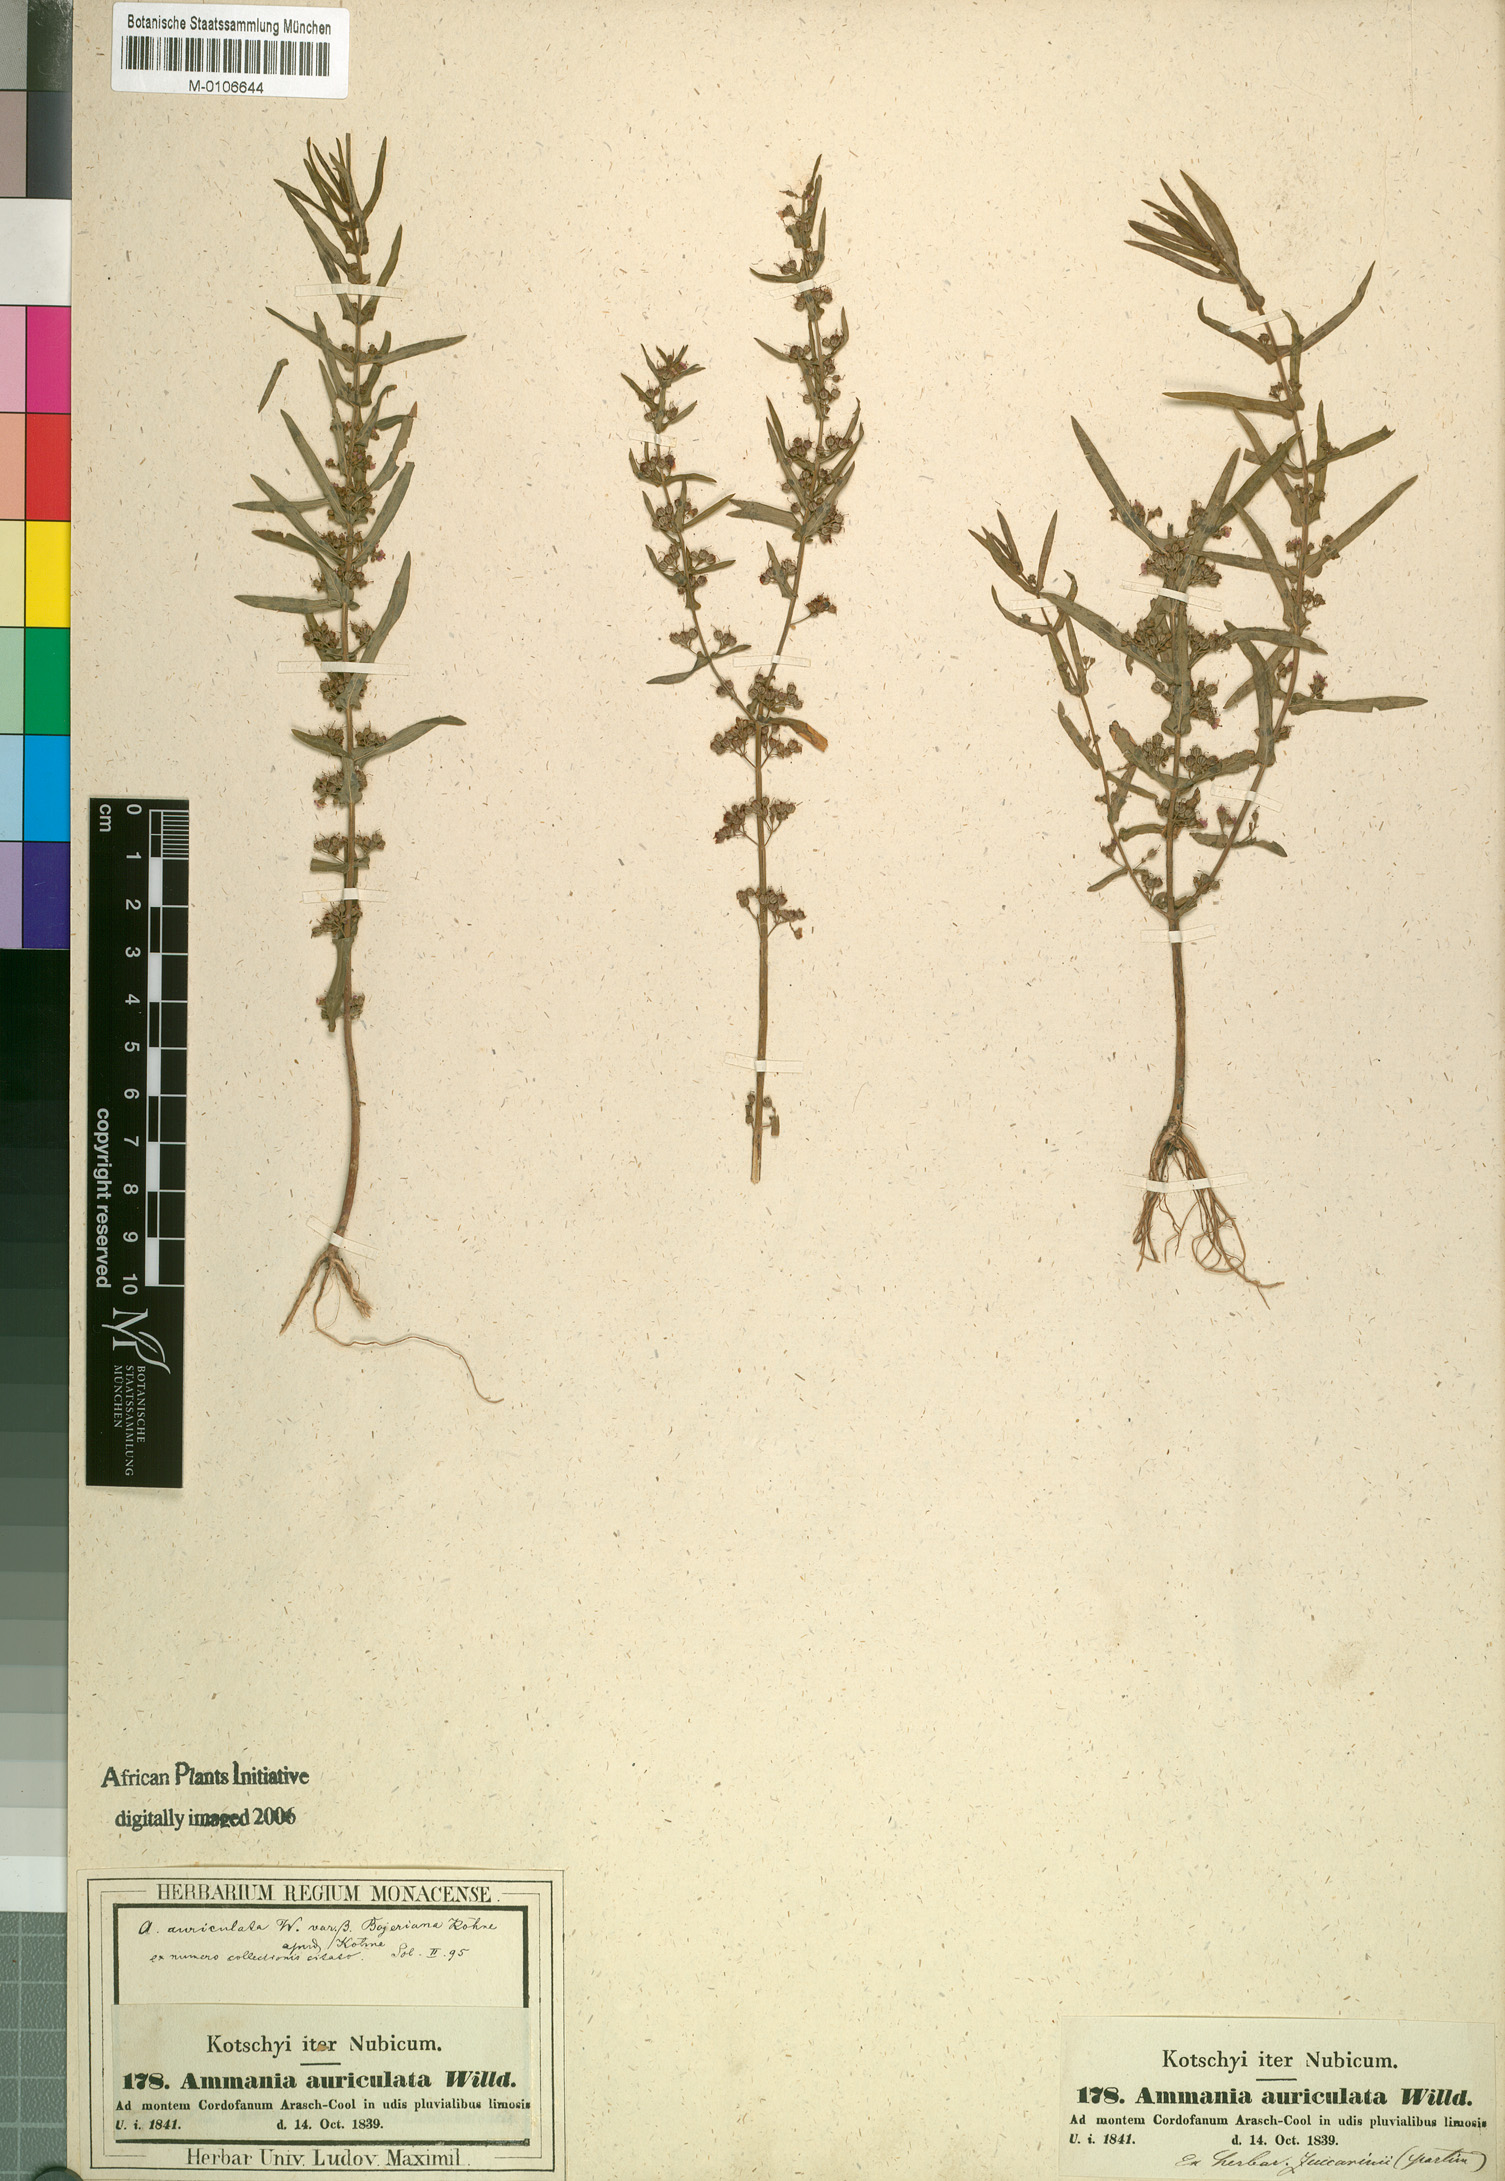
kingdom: Plantae
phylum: Tracheophyta
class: Magnoliopsida
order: Myrtales
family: Lythraceae
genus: Ammannia
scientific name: Ammannia auriculata
